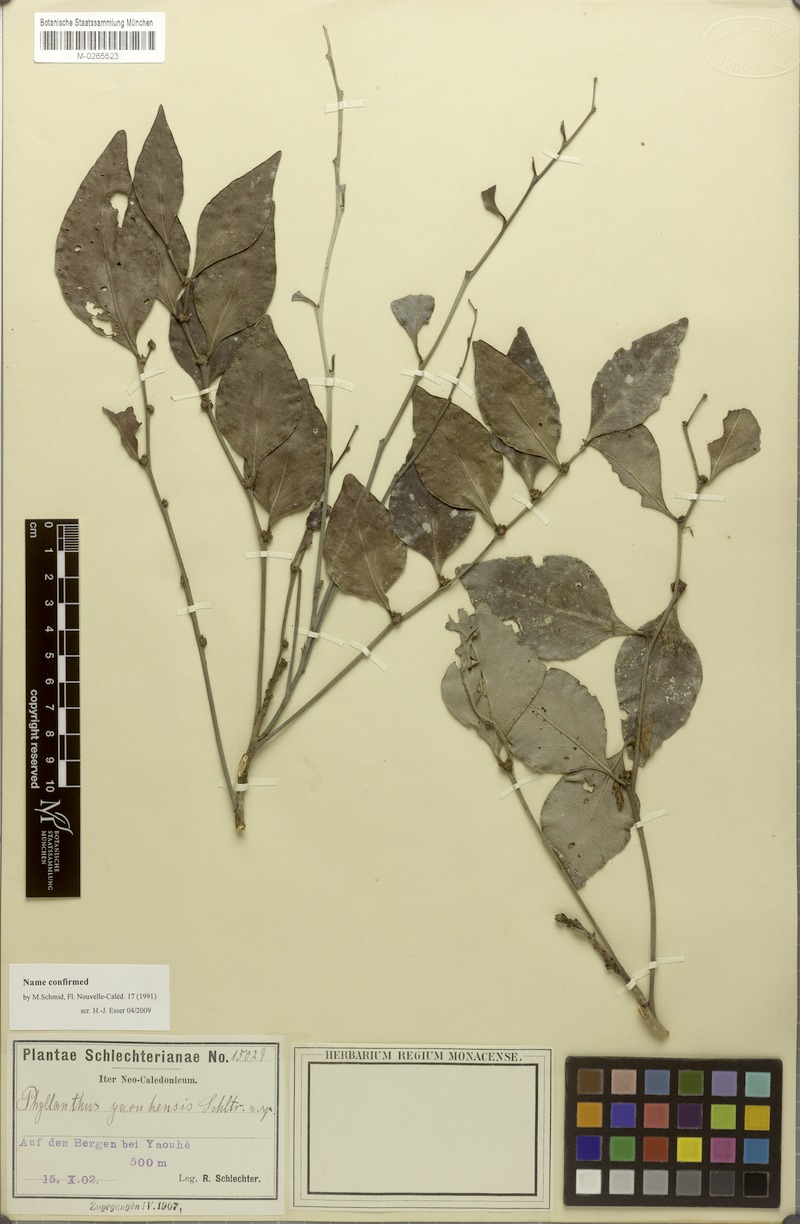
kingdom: Plantae
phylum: Tracheophyta
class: Magnoliopsida
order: Malpighiales
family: Phyllanthaceae
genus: Phyllanthus
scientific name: Phyllanthus yaouhensis
